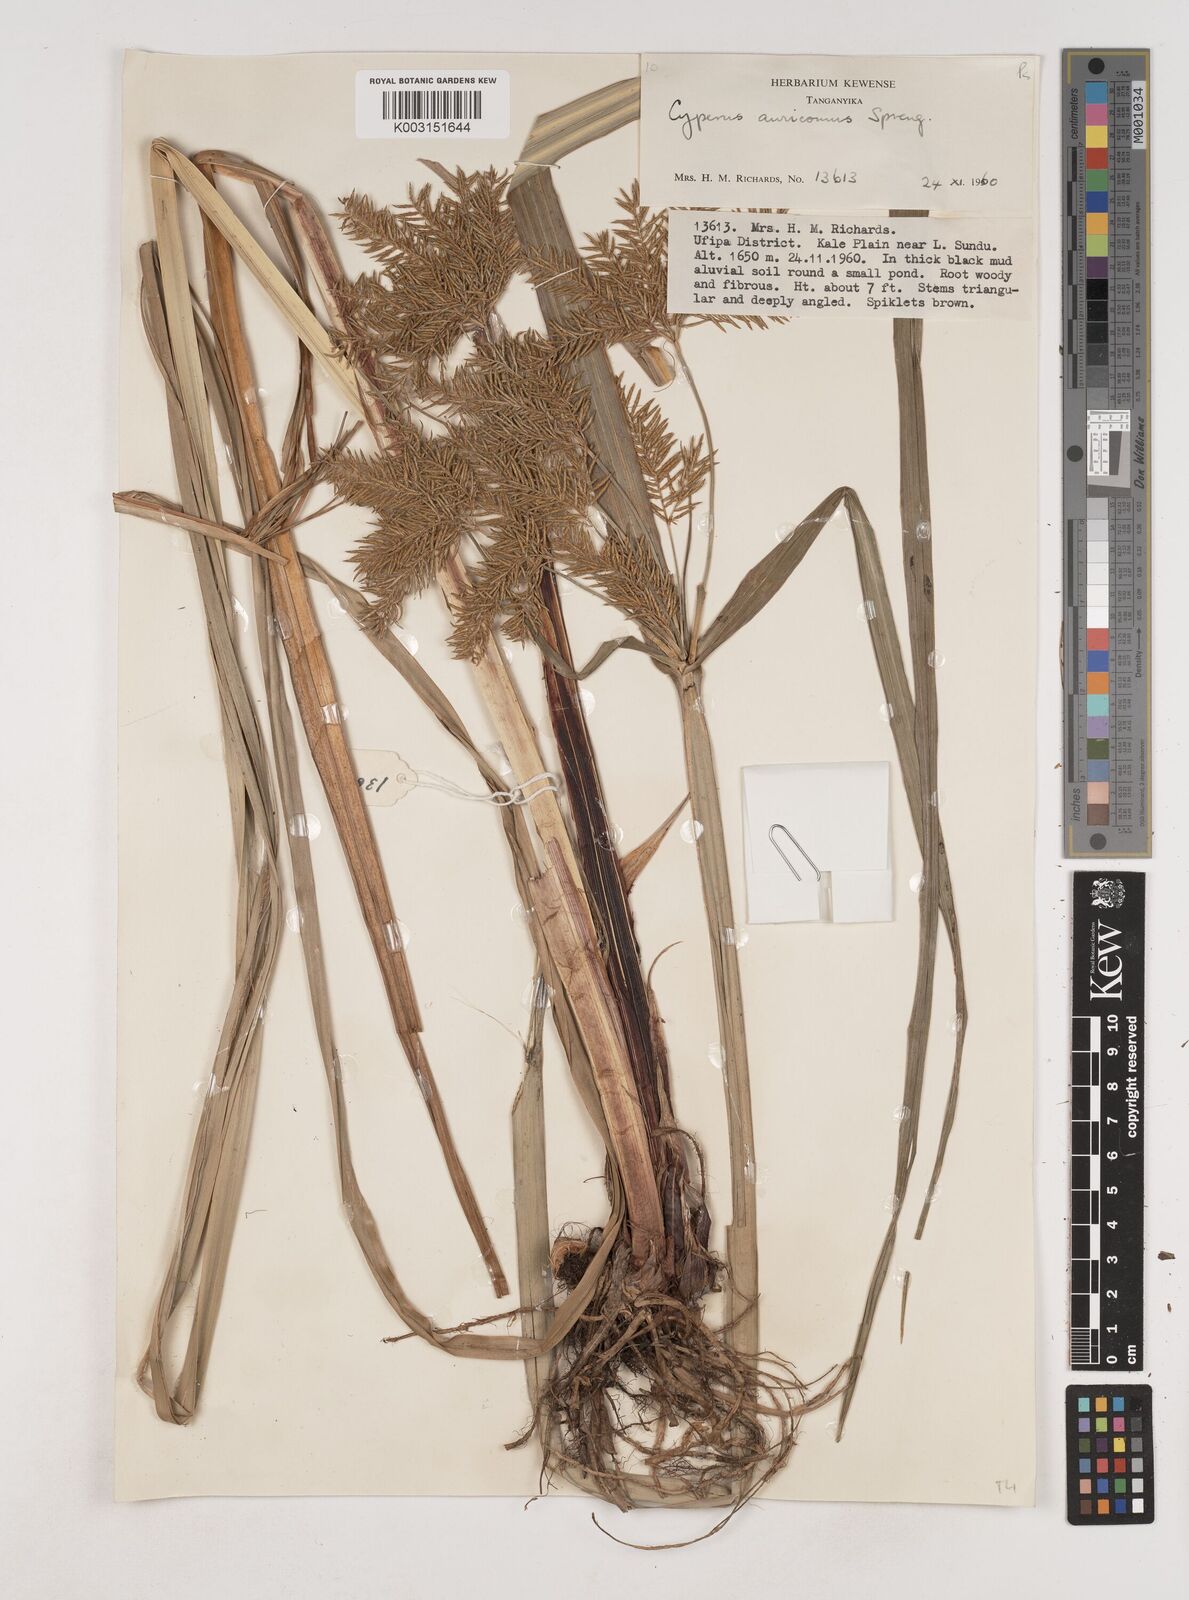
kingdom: Plantae
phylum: Tracheophyta
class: Liliopsida
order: Poales
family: Cyperaceae
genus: Cyperus
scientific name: Cyperus digitatus
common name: Finger flatsedge
